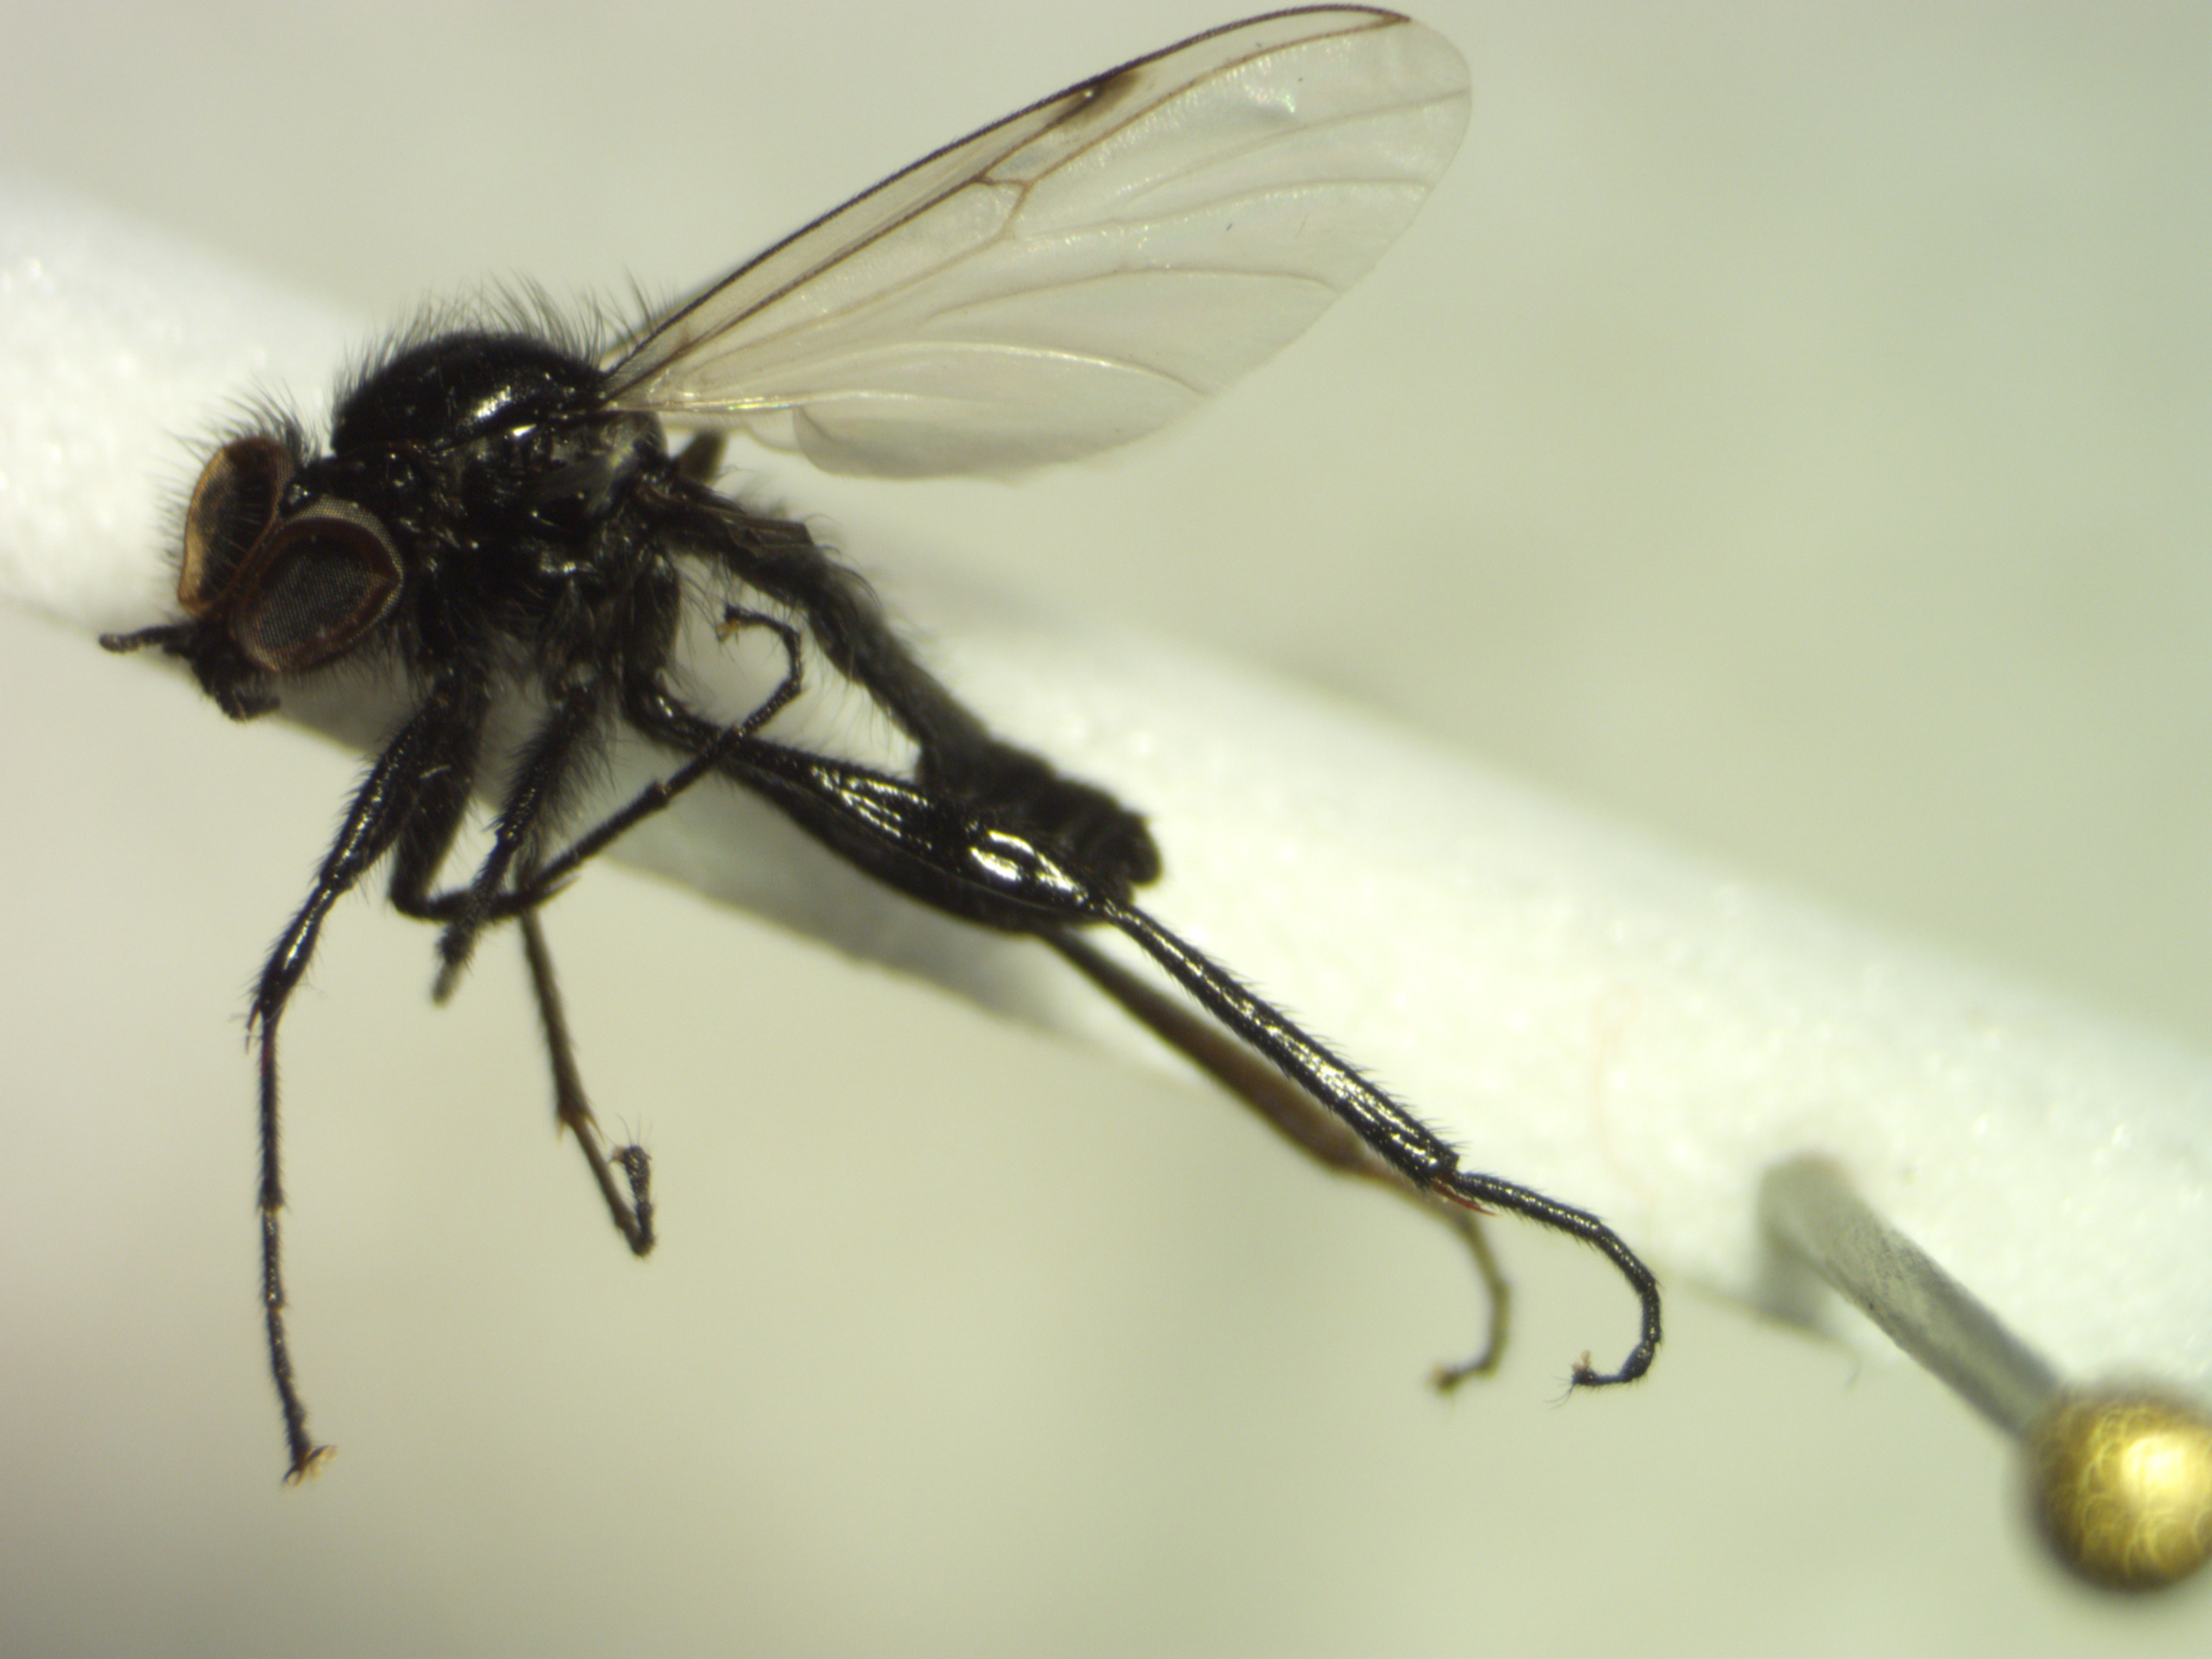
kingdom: Animalia
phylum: Arthropoda
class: Insecta
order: Diptera
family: Bibionidae
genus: Bibio
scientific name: Bibio leucoptera
